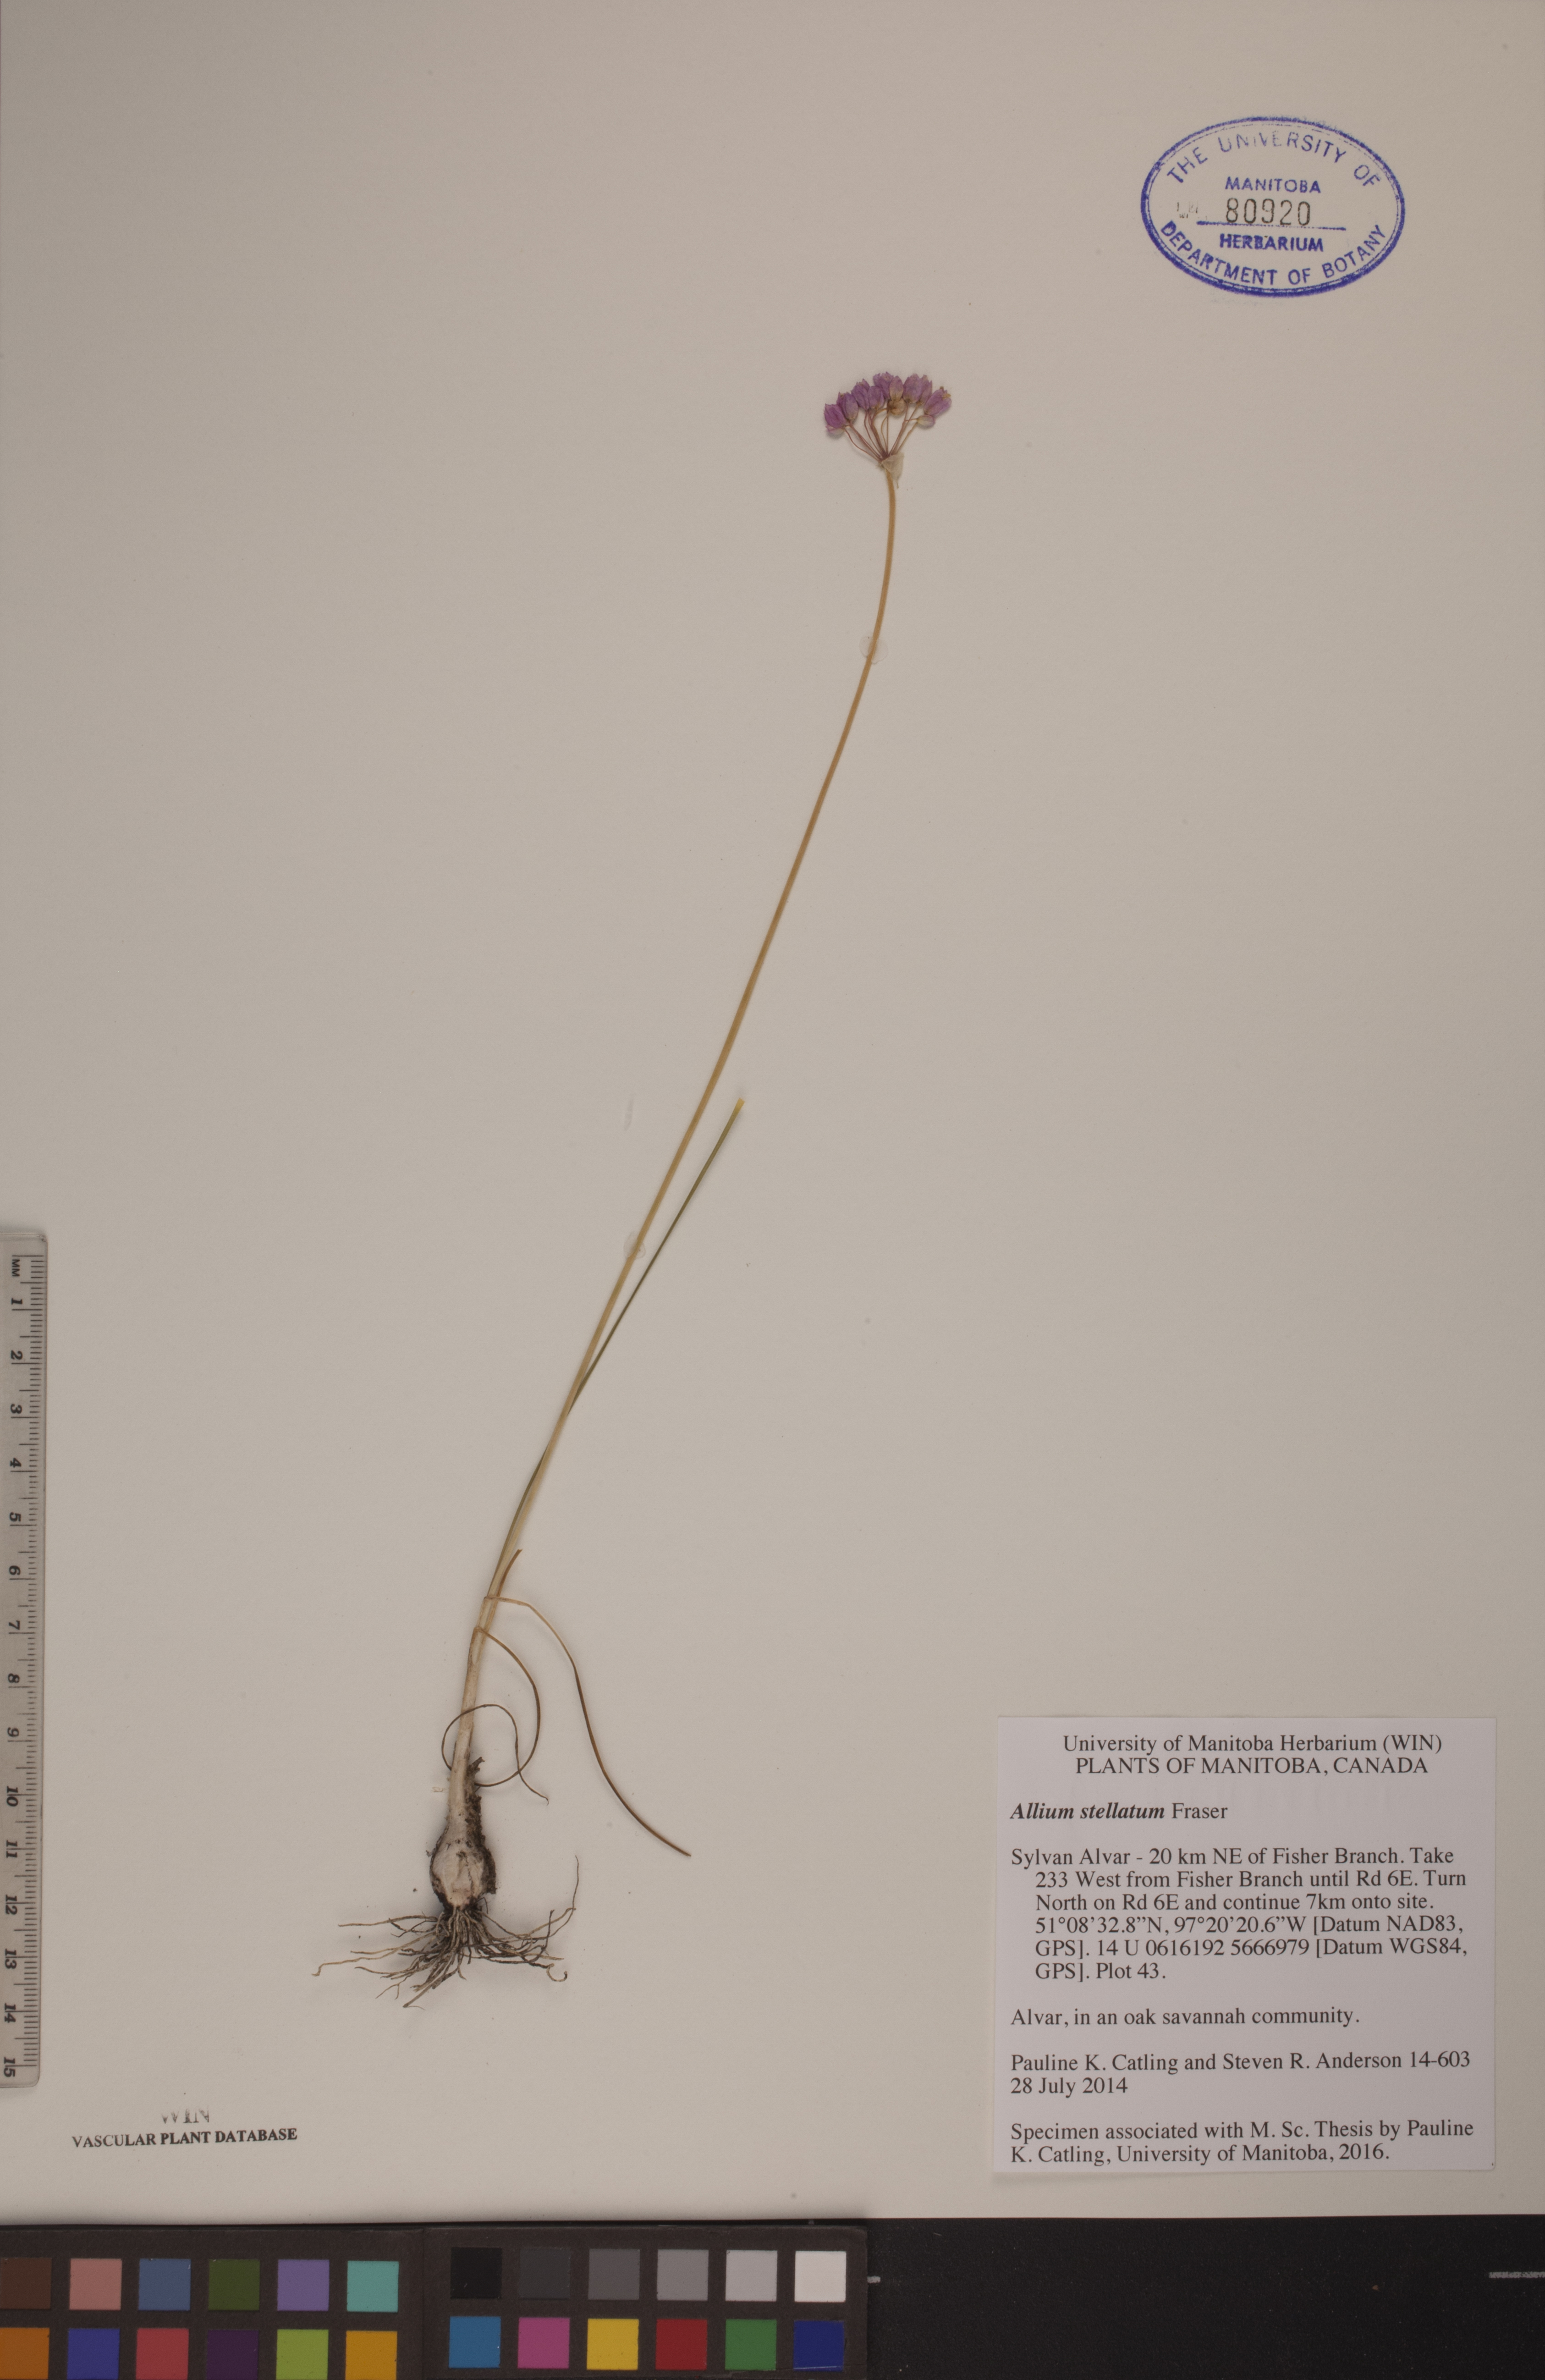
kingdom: Plantae
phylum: Tracheophyta
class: Liliopsida
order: Asparagales
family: Amaryllidaceae
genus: Allium
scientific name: Allium stellatum
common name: Autumn onion
